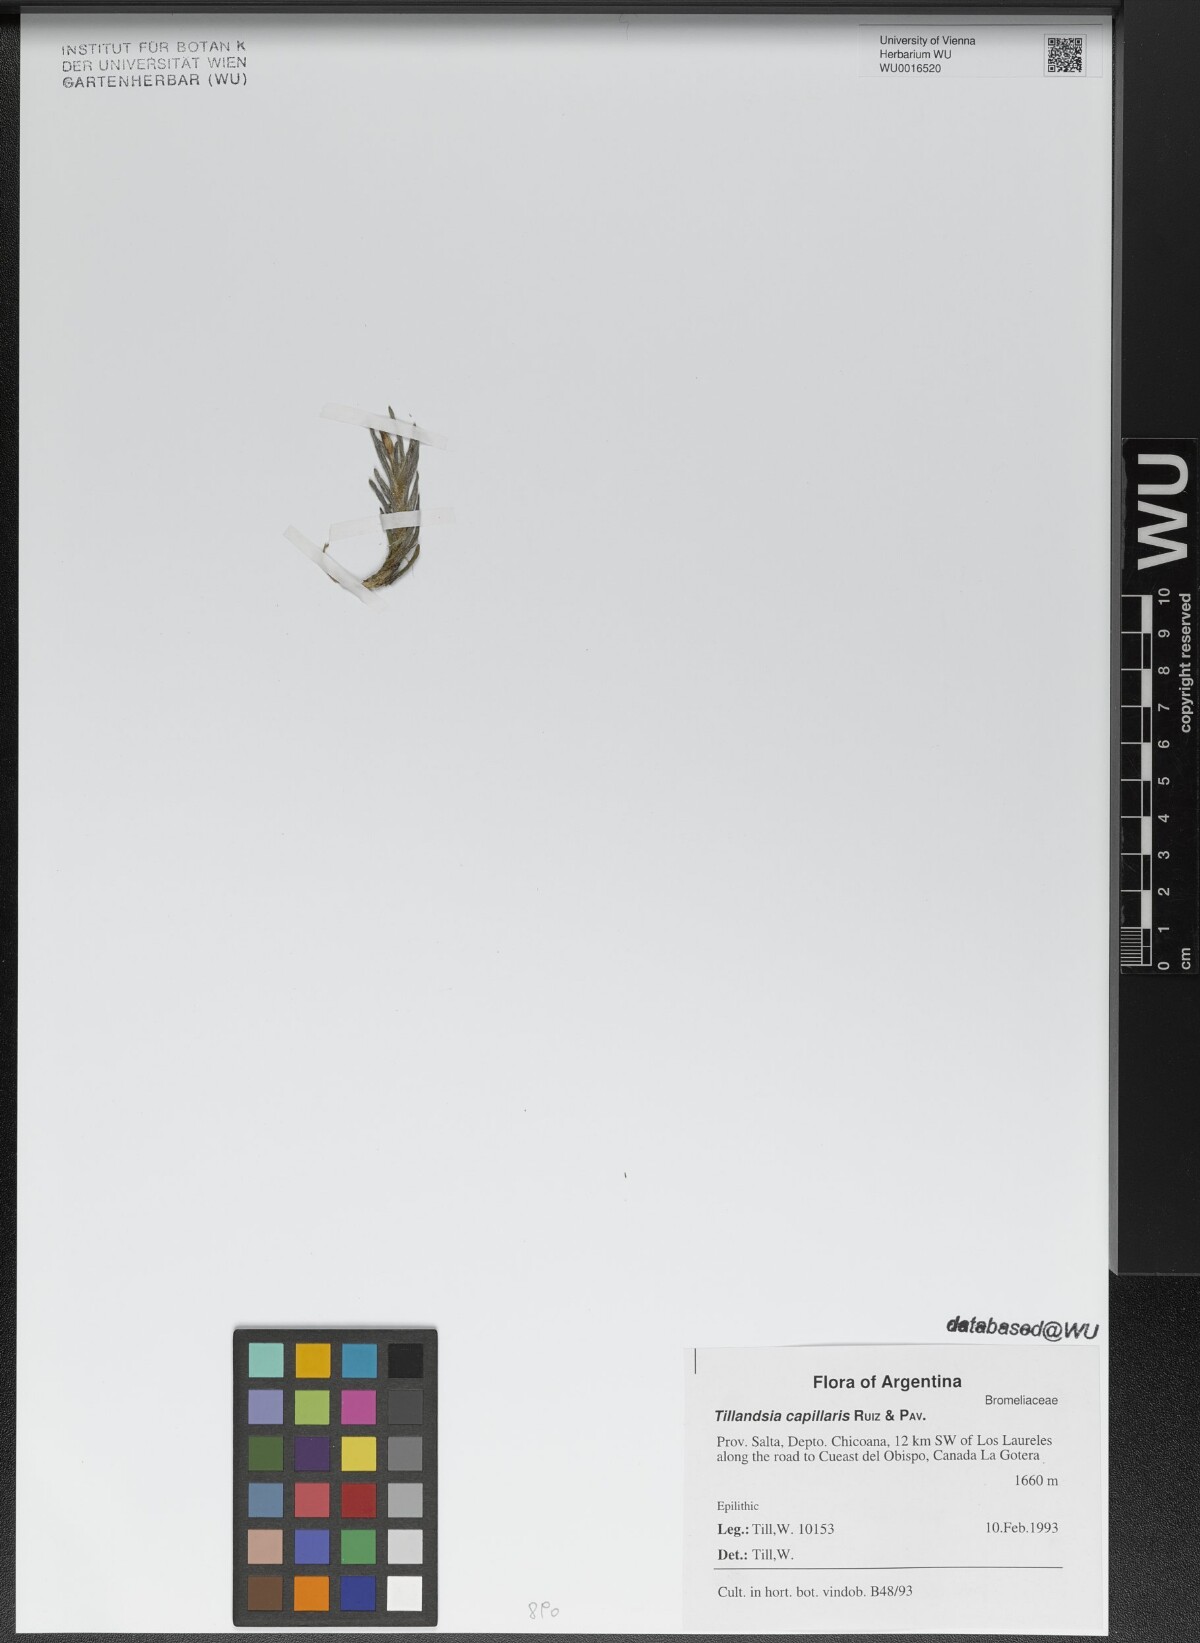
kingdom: Plantae
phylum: Tracheophyta
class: Liliopsida
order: Poales
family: Bromeliaceae
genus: Tillandsia
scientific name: Tillandsia capillaris
